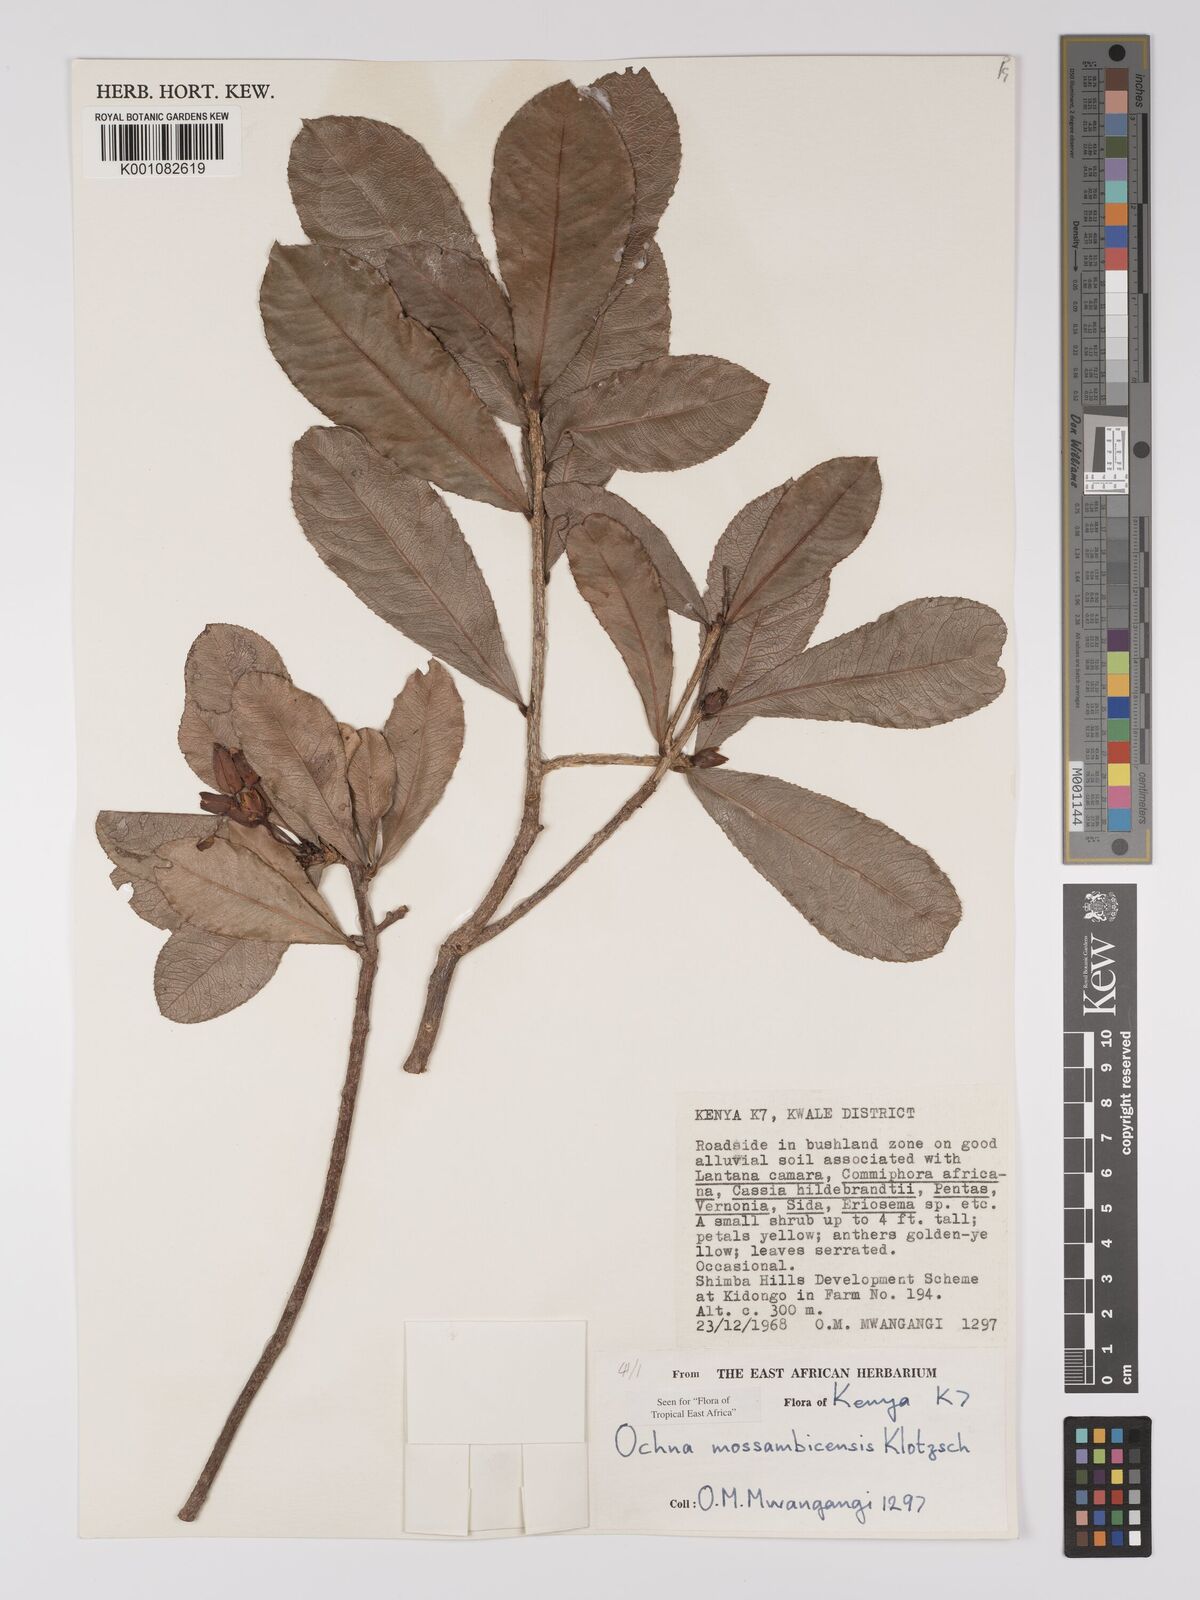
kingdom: Plantae
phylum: Tracheophyta
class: Magnoliopsida
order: Malpighiales
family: Ochnaceae
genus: Ochna
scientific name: Ochna atropurpurea
